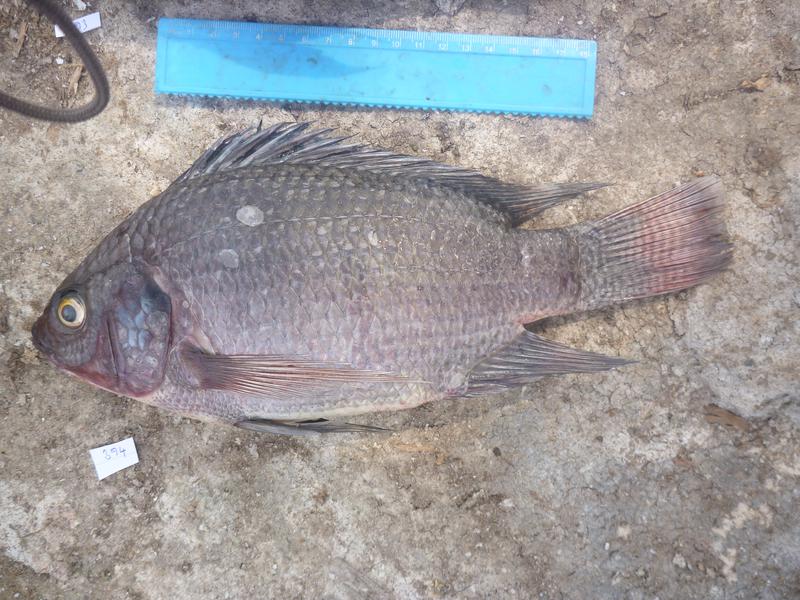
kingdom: Animalia
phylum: Chordata
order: Perciformes
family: Cichlidae
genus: Oreochromis
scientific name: Oreochromis niloticus
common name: Nile tilapia
